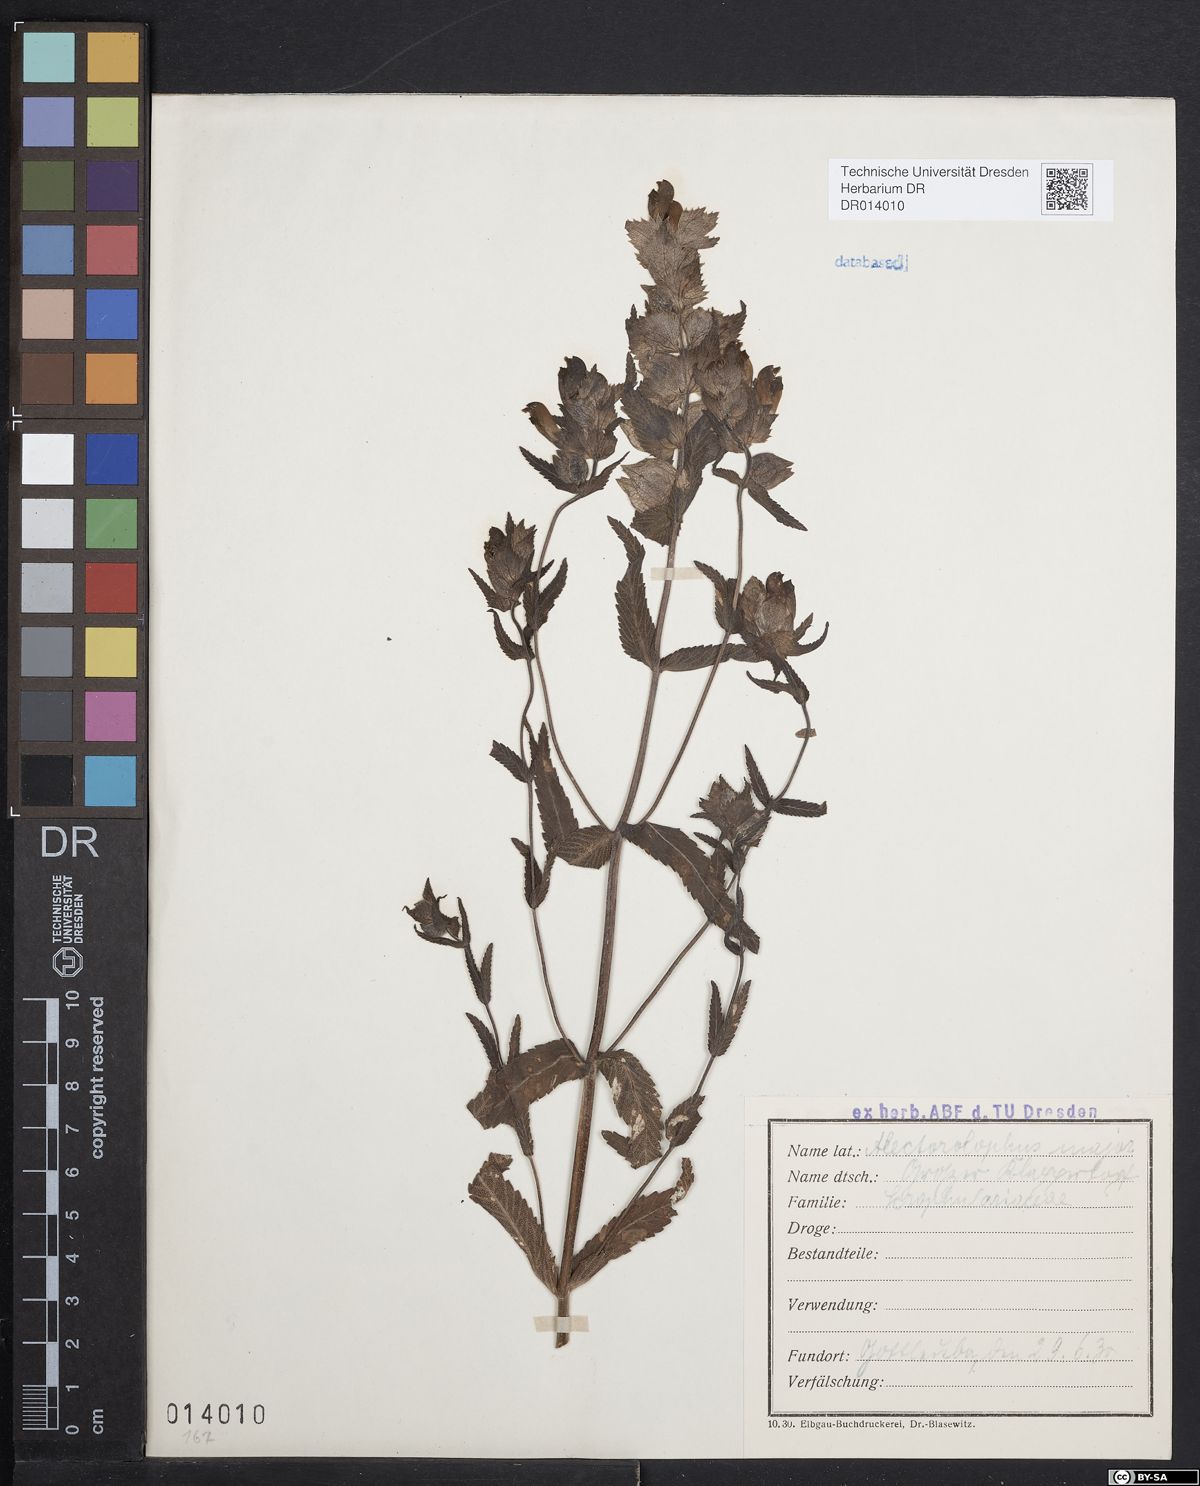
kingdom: Plantae
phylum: Tracheophyta
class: Magnoliopsida
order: Lamiales
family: Orobanchaceae
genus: Rhinanthus
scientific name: Rhinanthus serotinus
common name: Late-flowering yellow rattle
